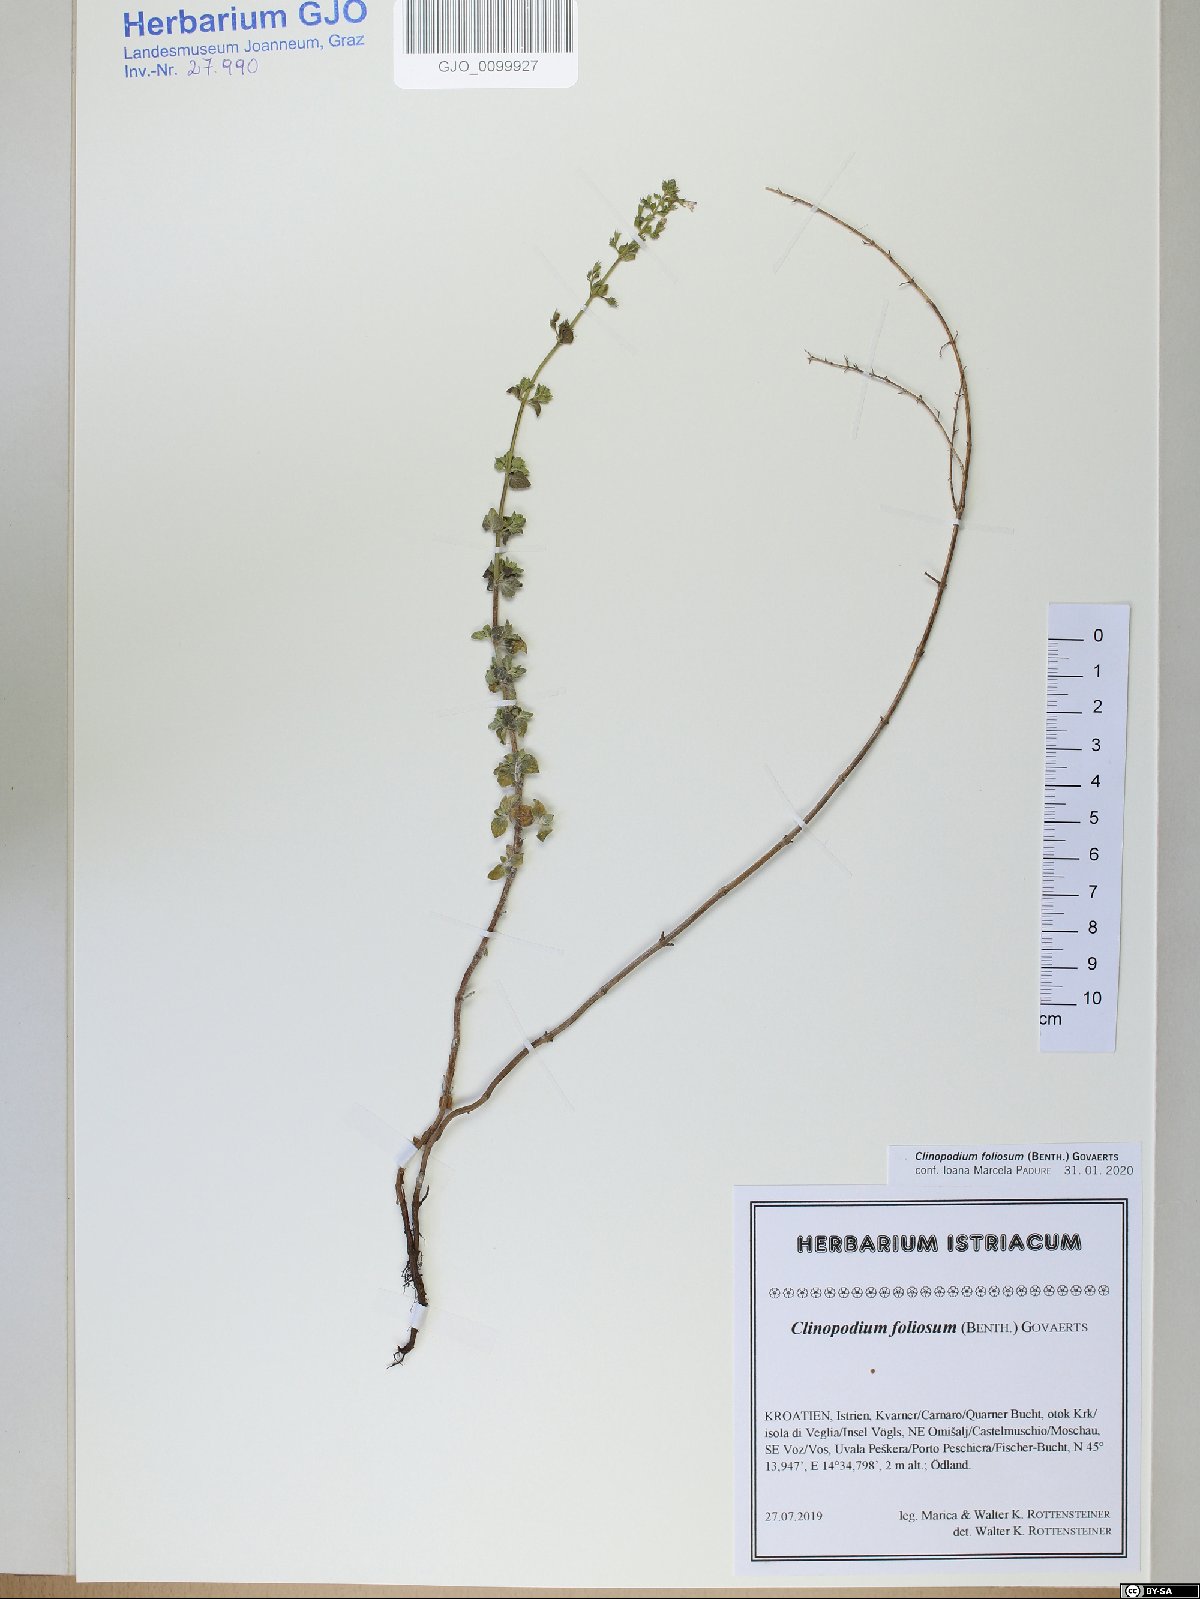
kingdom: Plantae
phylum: Tracheophyta
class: Magnoliopsida
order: Lamiales
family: Lamiaceae
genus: Clinopodium
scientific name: Clinopodium foliolosum
